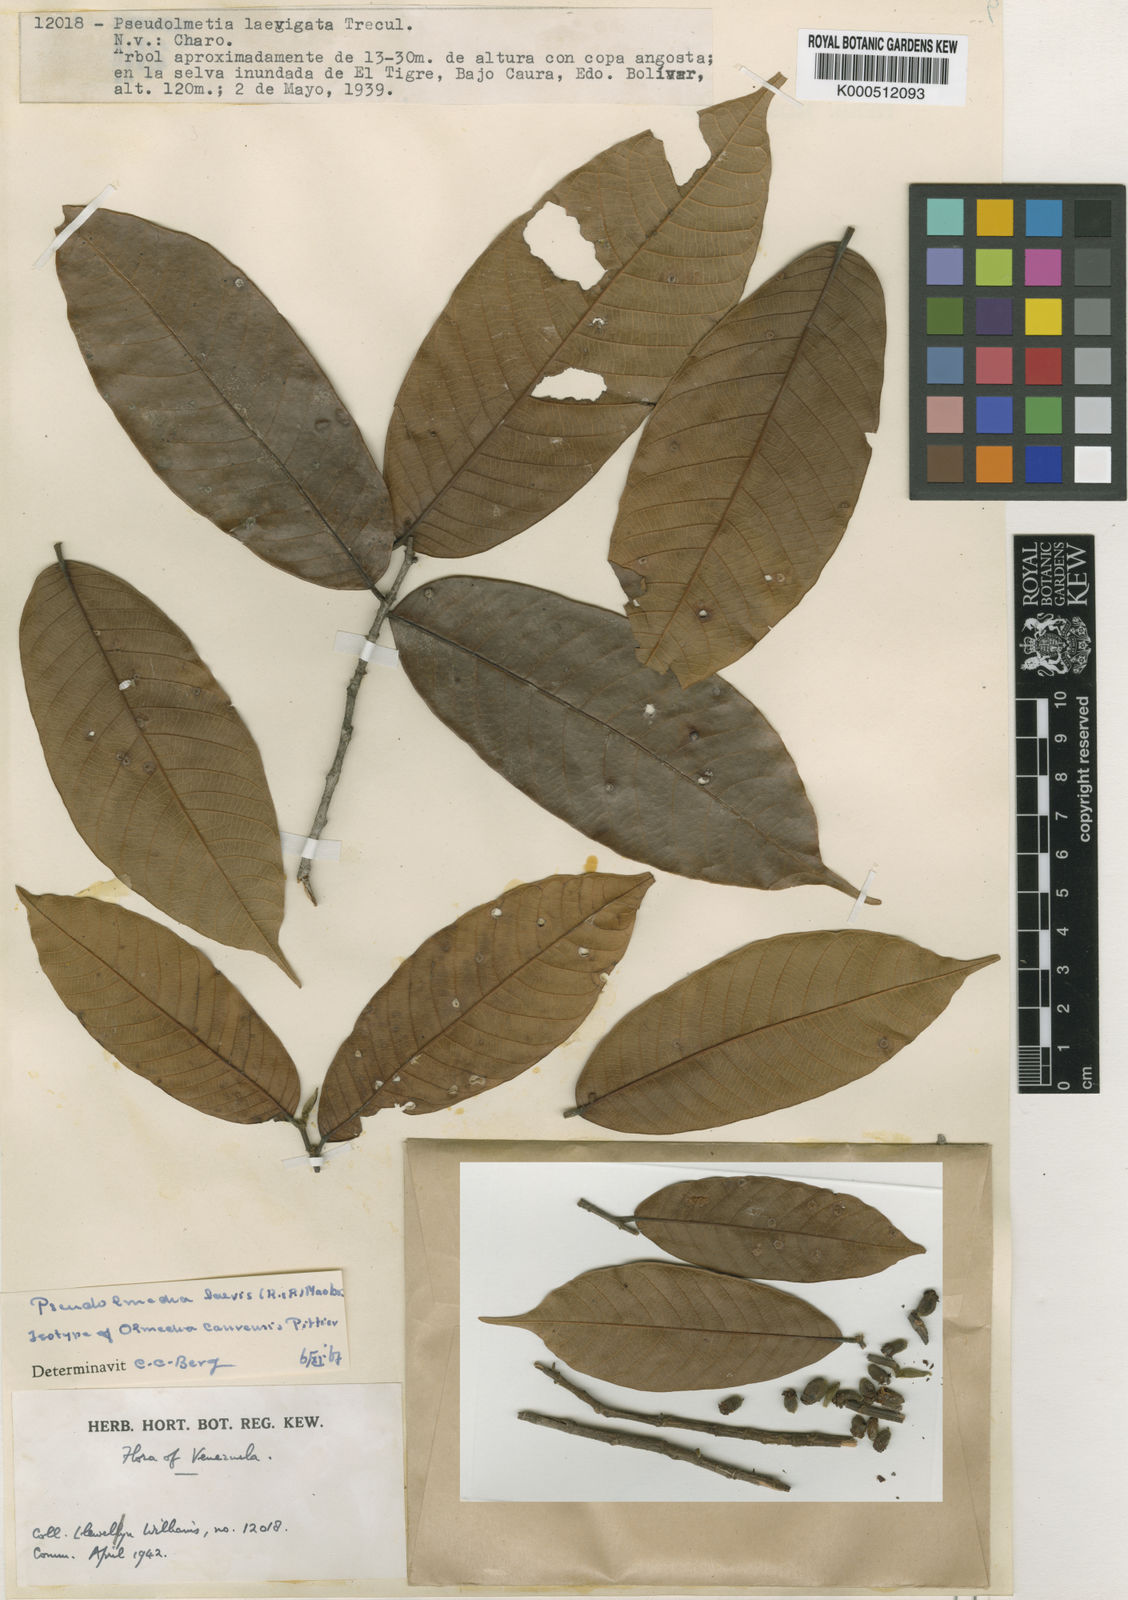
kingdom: Plantae
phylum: Tracheophyta
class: Magnoliopsida
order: Rosales
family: Moraceae
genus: Pseudolmedia
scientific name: Pseudolmedia laevis
